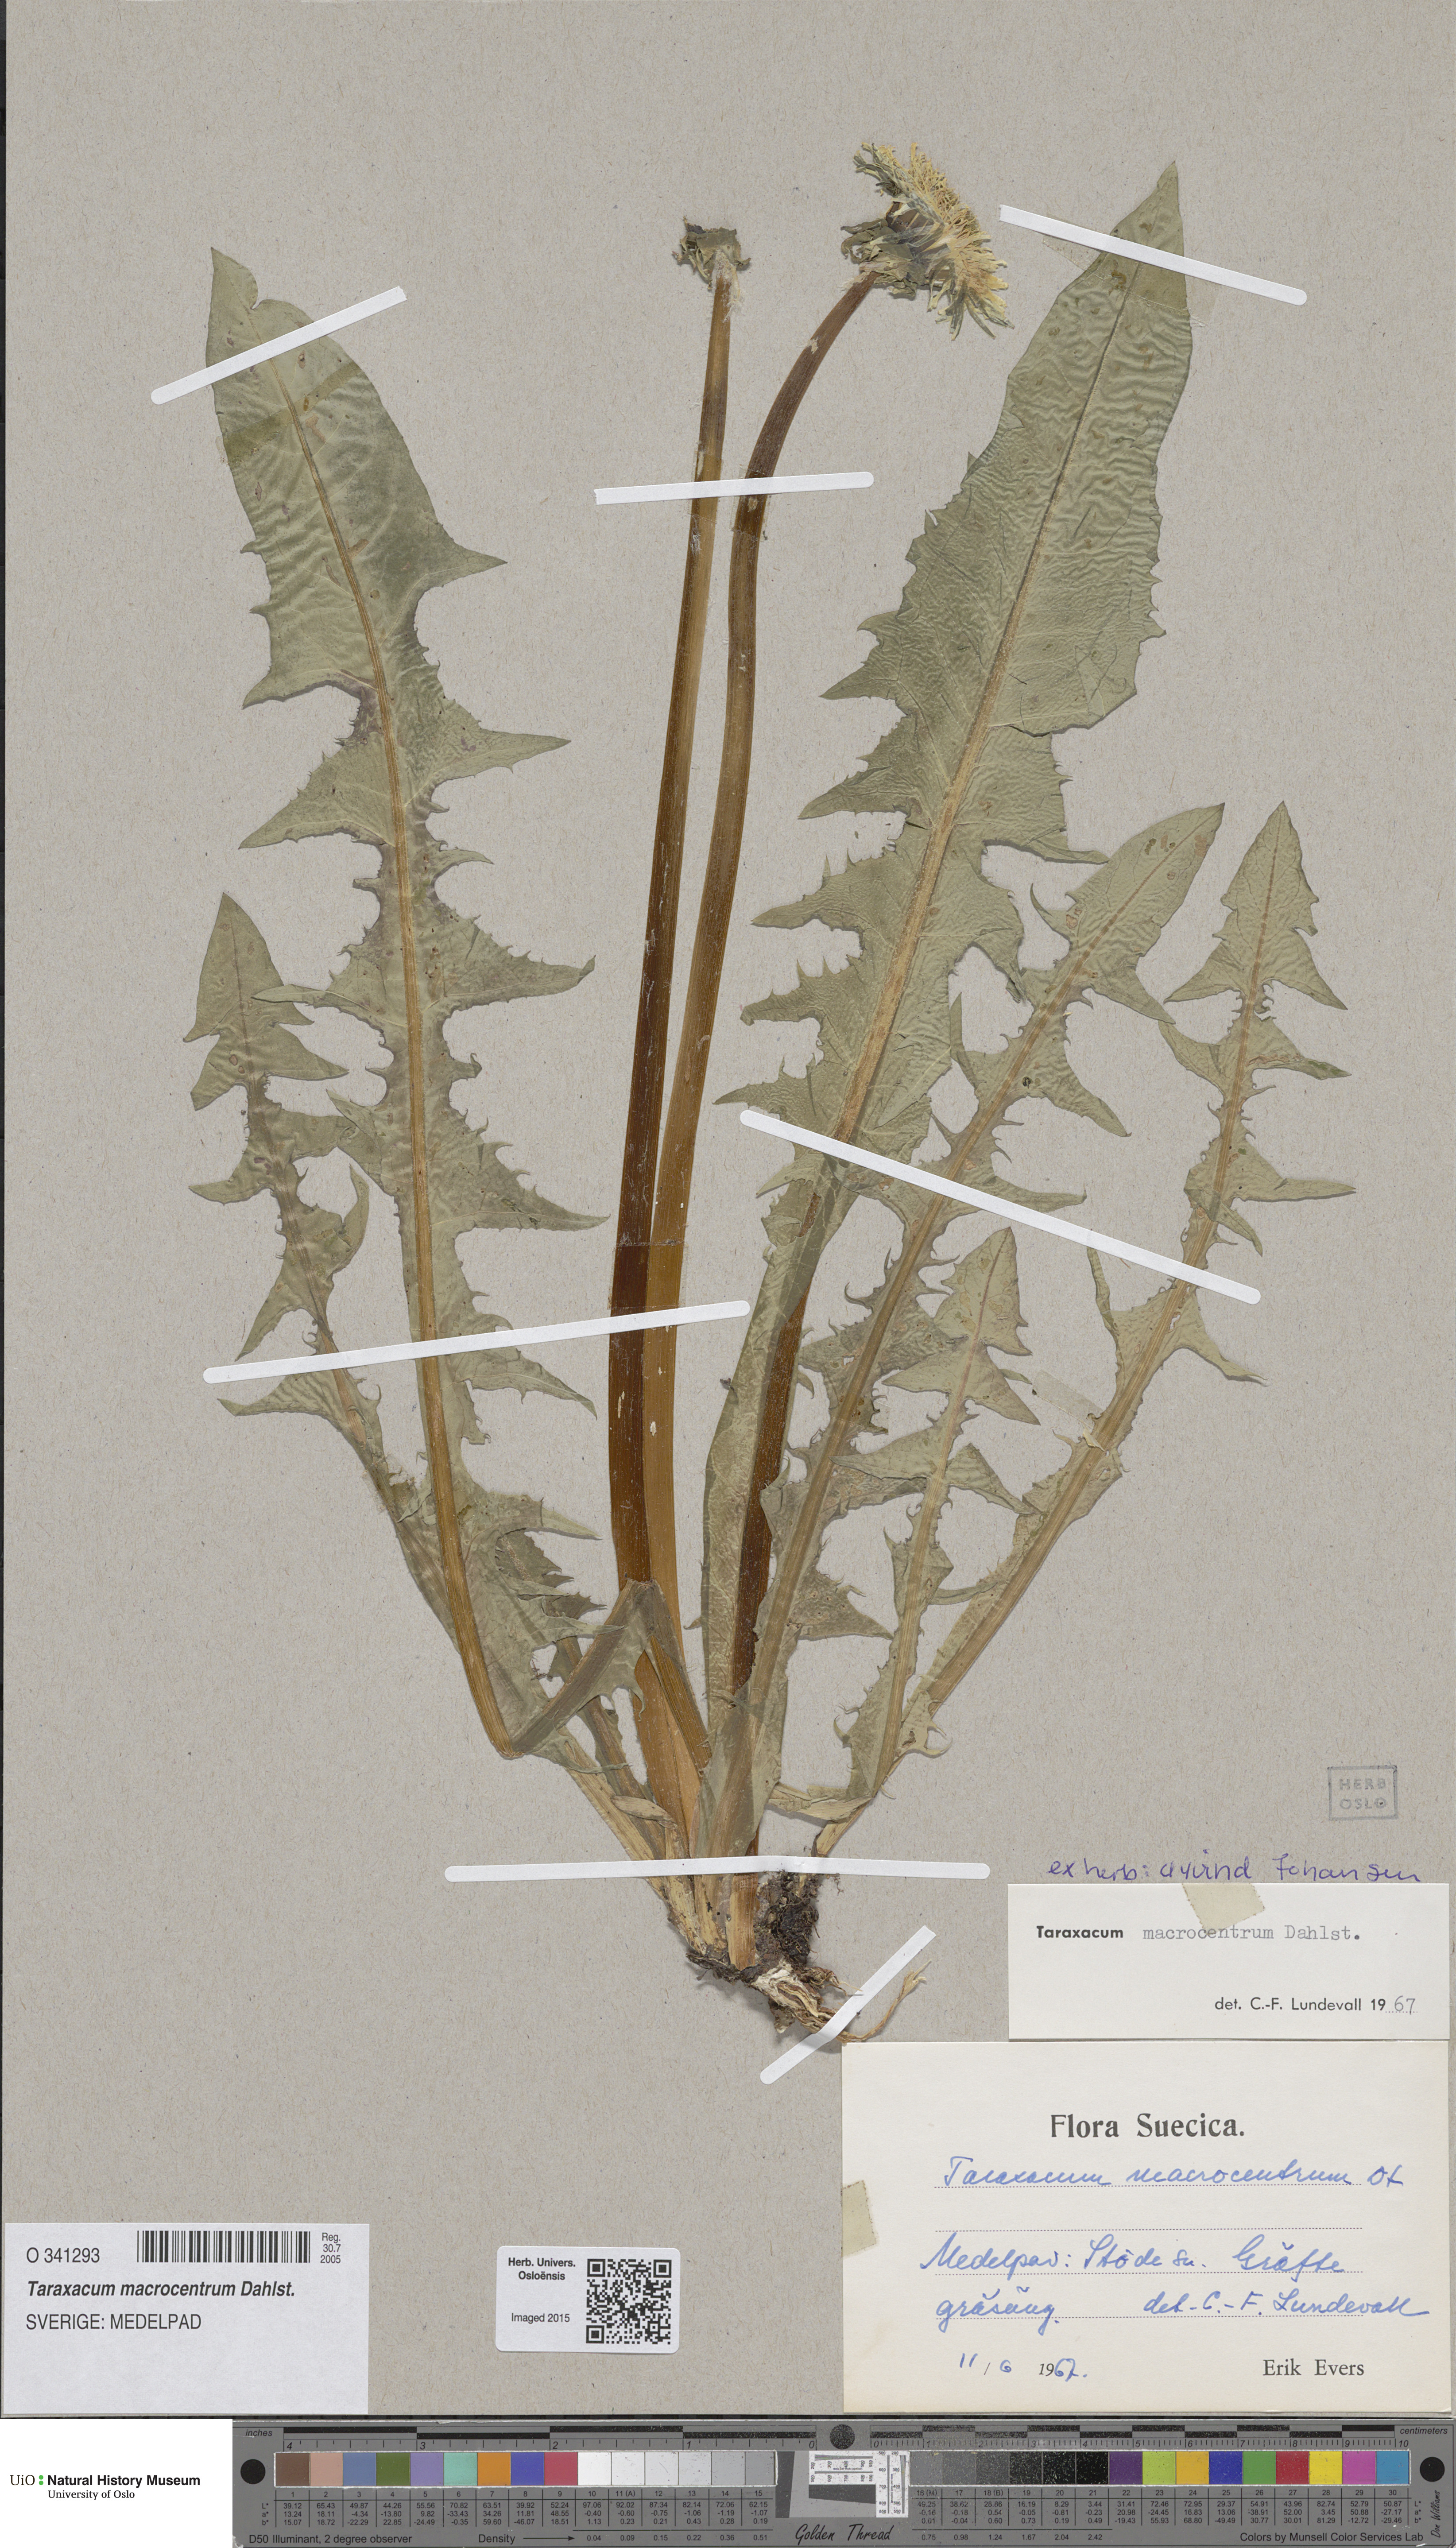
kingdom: Plantae
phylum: Tracheophyta
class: Magnoliopsida
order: Asterales
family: Asteraceae
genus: Taraxacum
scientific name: Taraxacum macrocentrum
